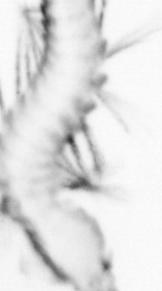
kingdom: Animalia
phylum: Annelida
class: Polychaeta
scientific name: Polychaeta
